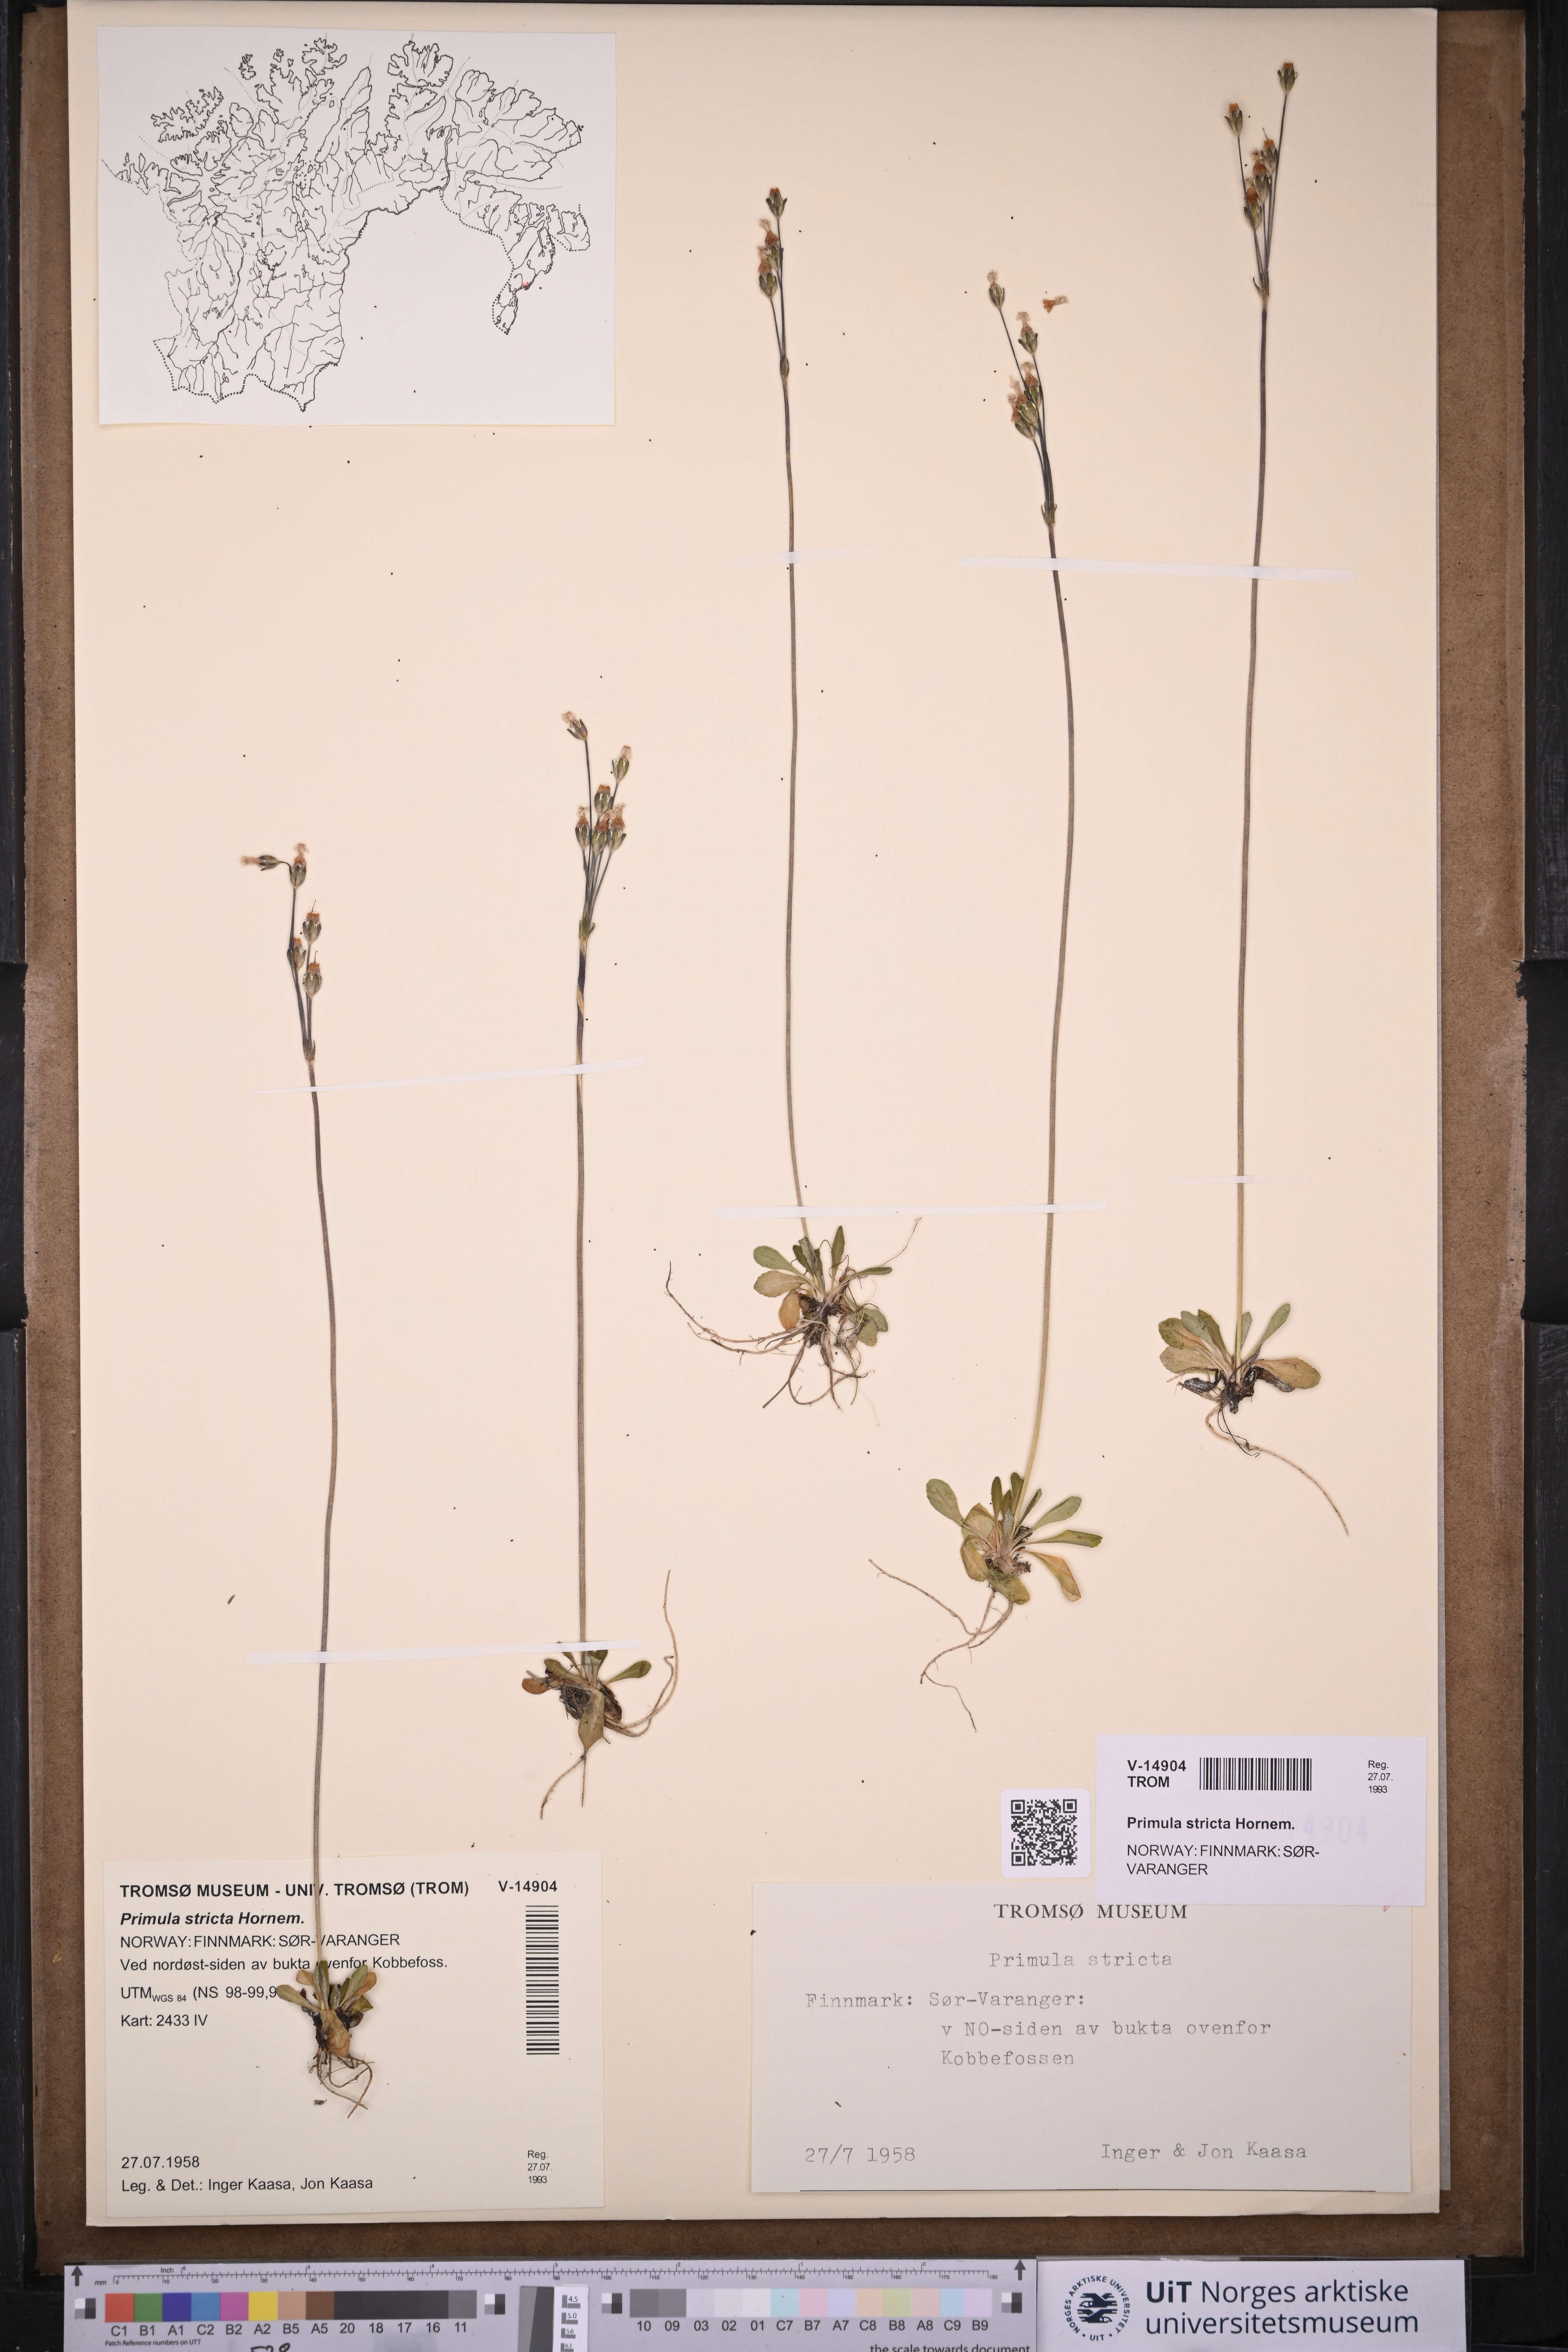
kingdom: Plantae
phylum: Tracheophyta
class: Magnoliopsida
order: Ericales
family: Primulaceae
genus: Primula
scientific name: Primula stricta
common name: Coastal primrose
